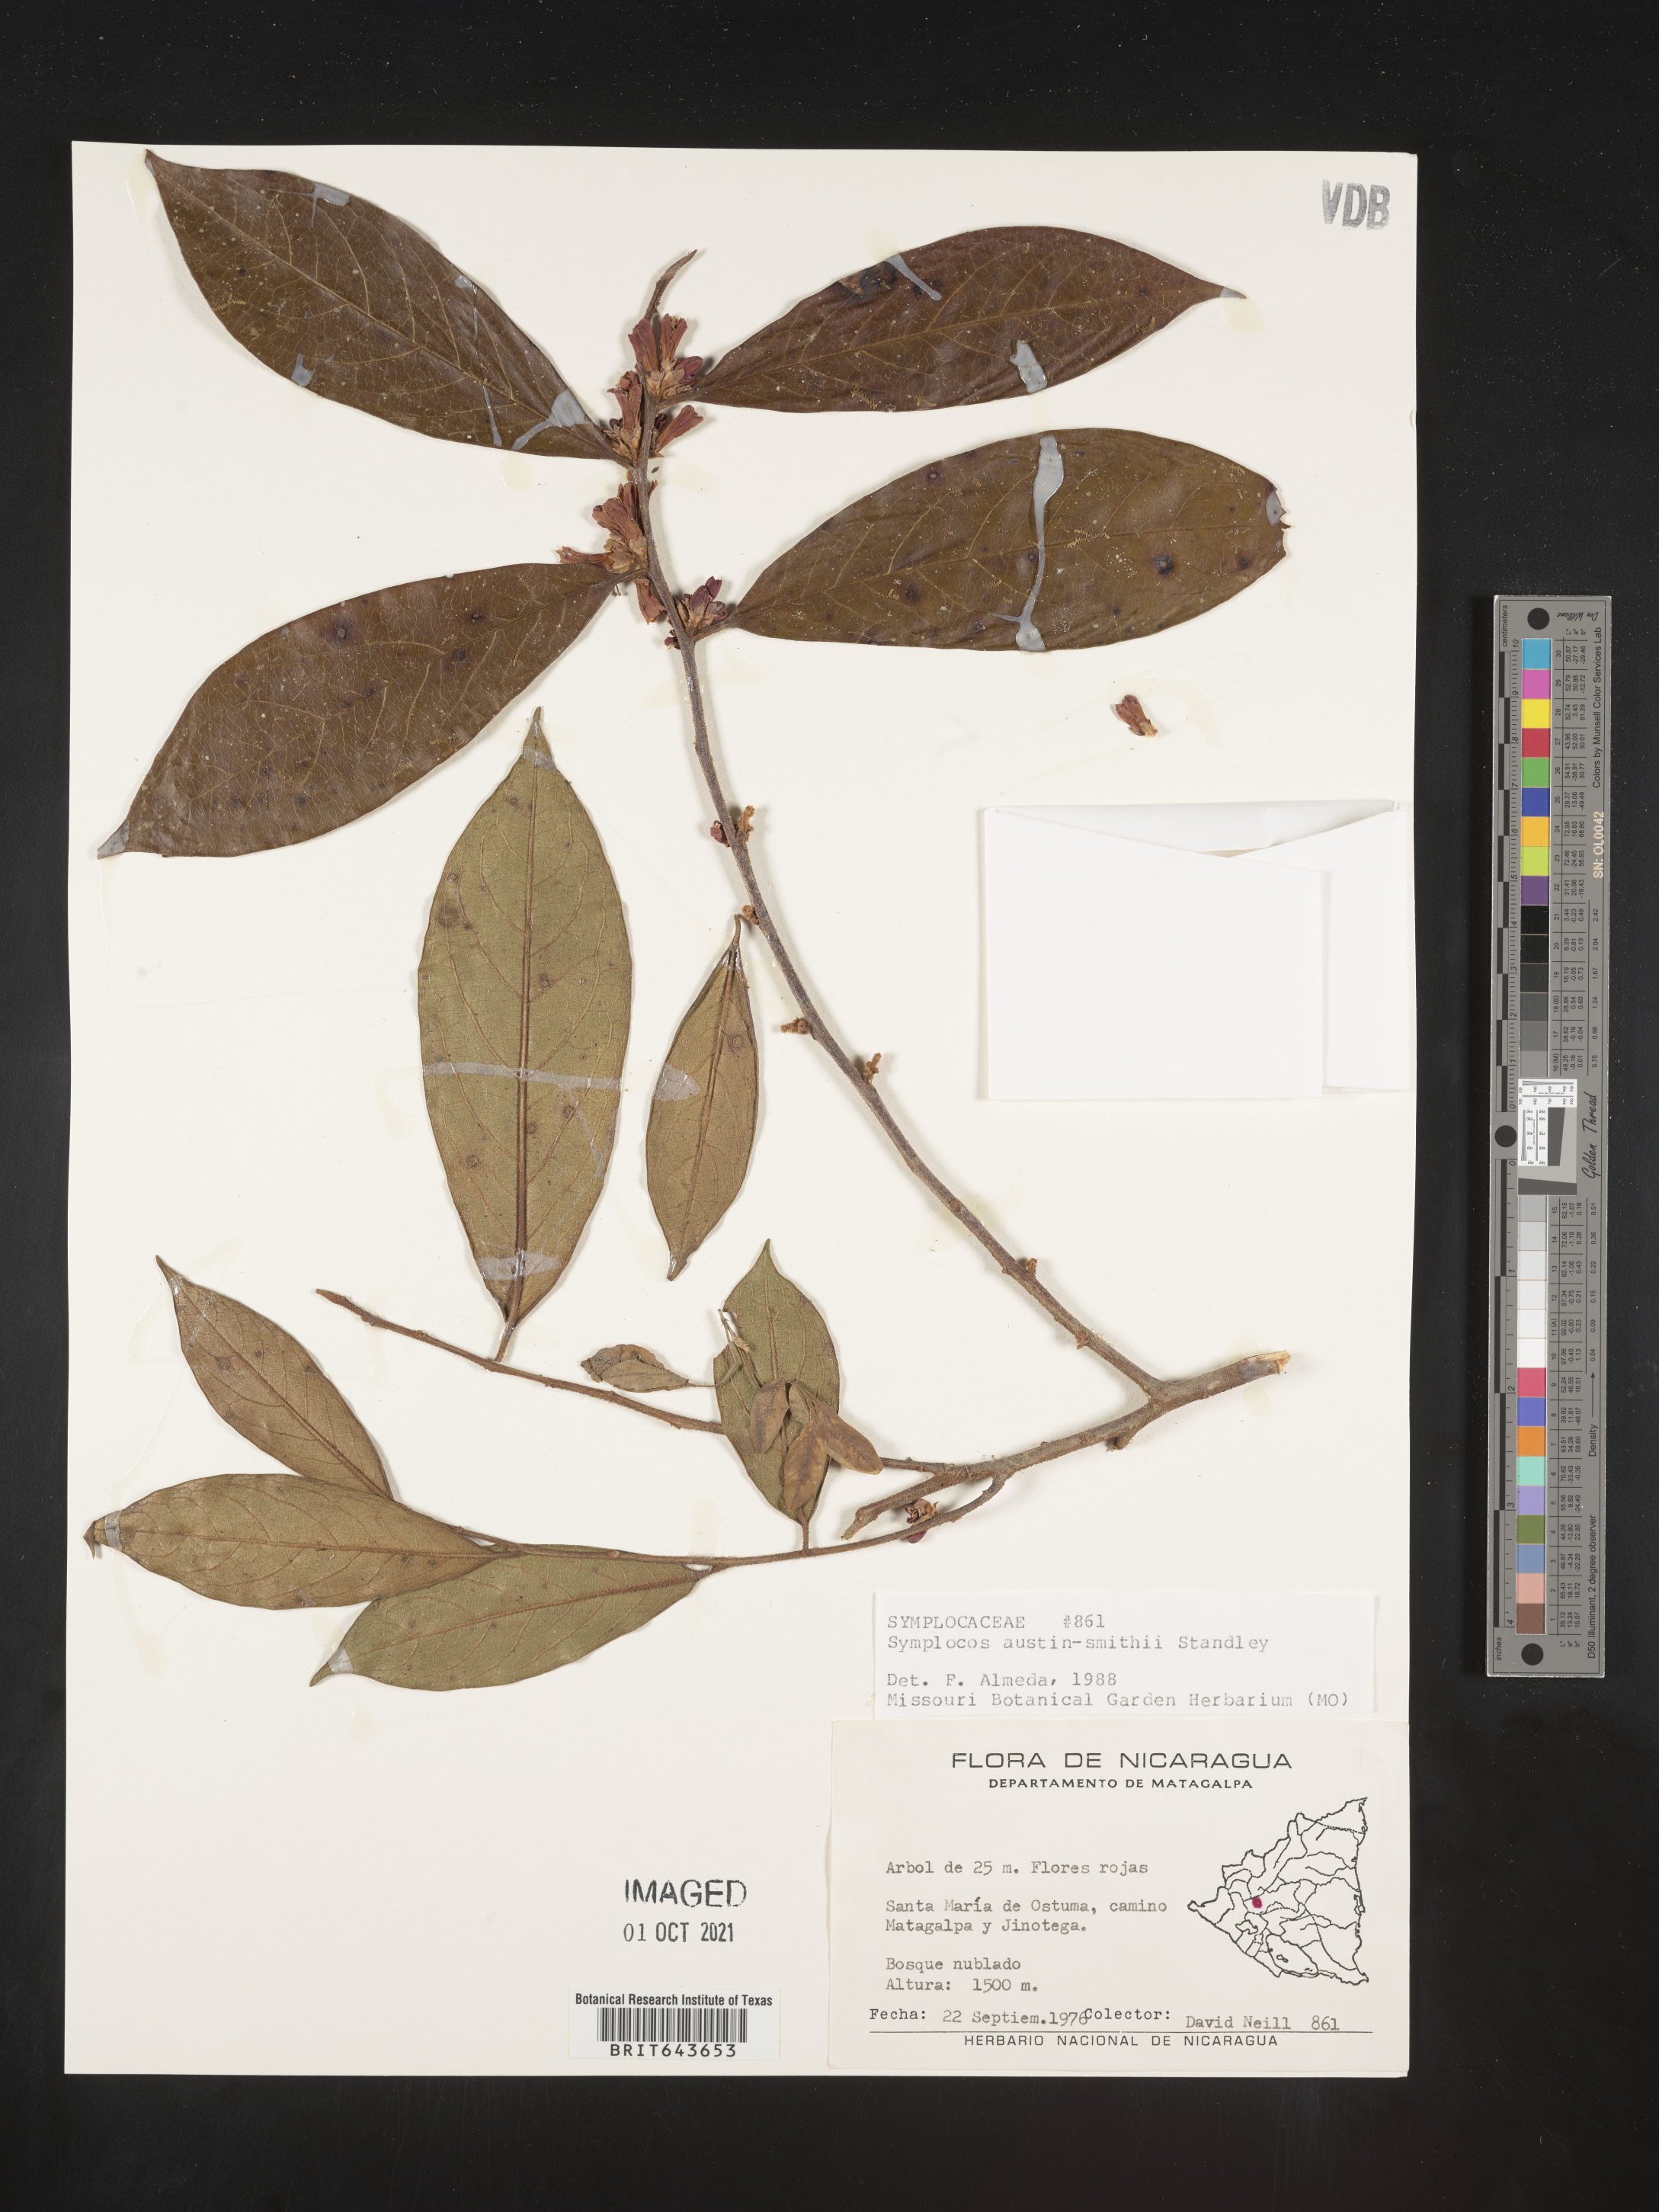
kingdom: Plantae
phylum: Tracheophyta
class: Magnoliopsida
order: Ericales
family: Symplocaceae
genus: Symplocos
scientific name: Symplocos
